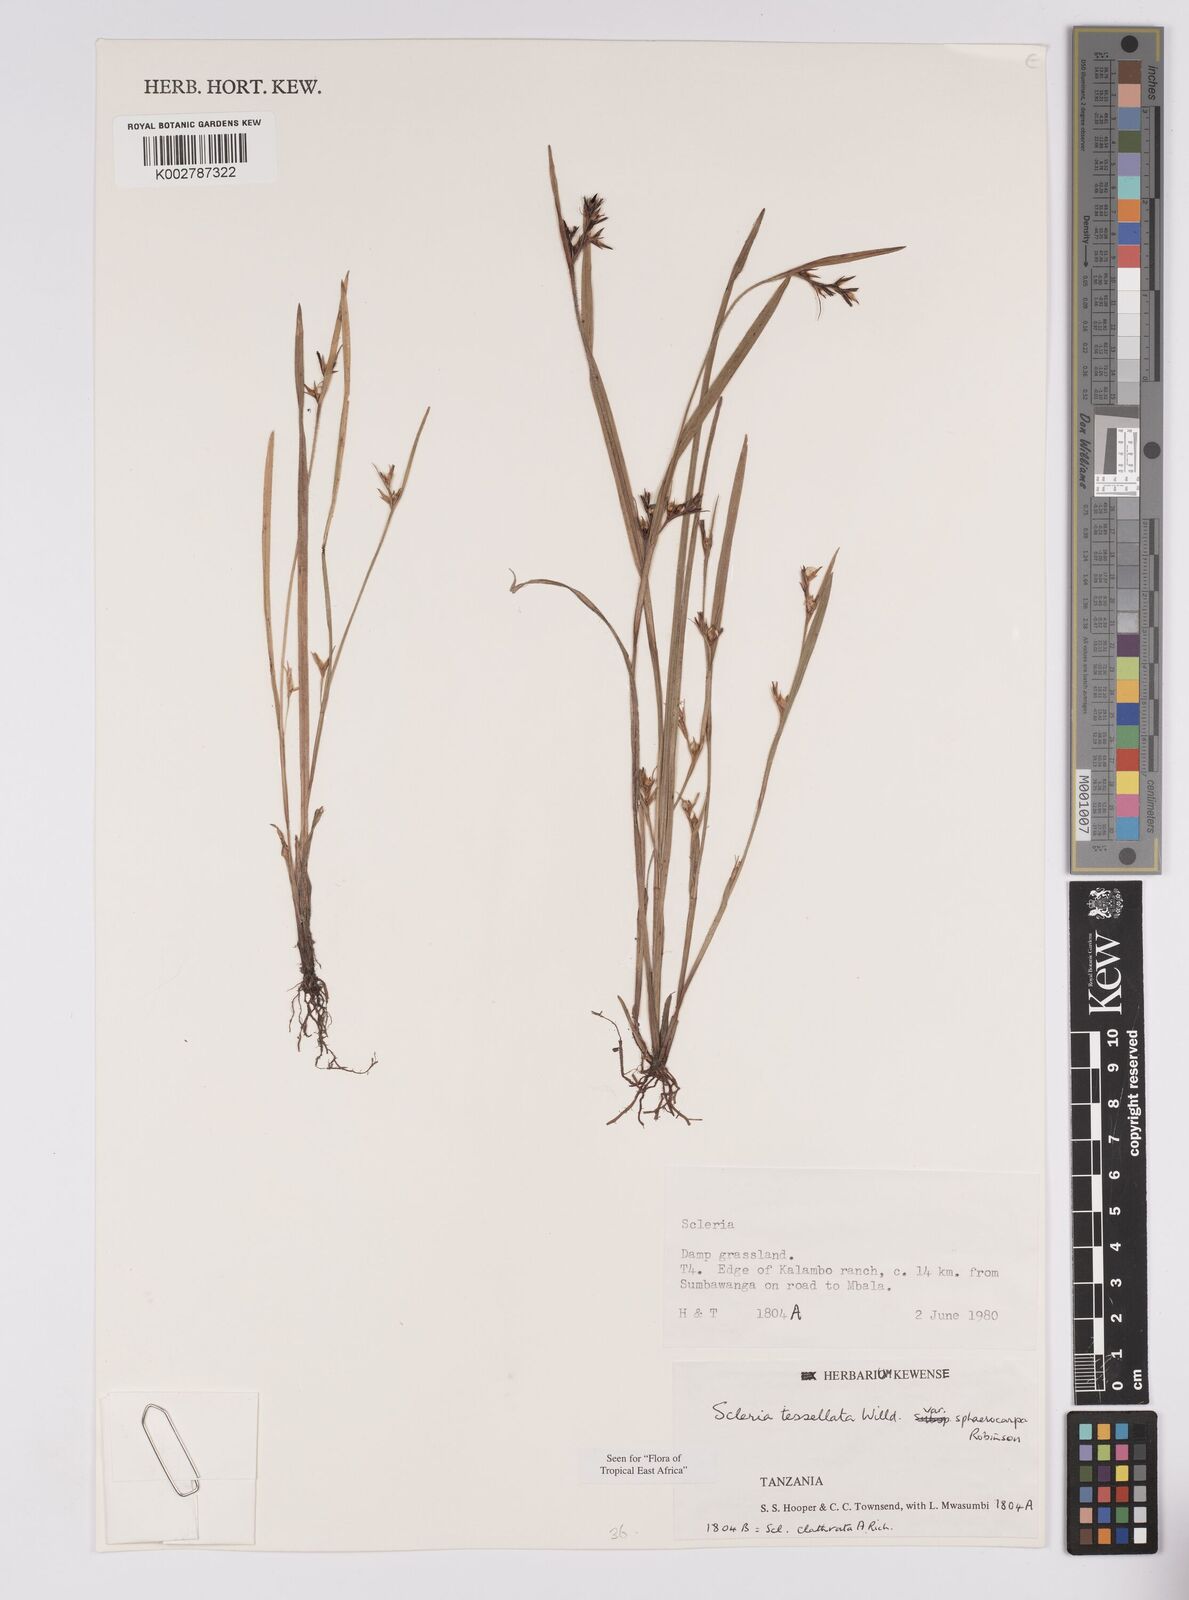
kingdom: Plantae
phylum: Tracheophyta
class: Liliopsida
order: Poales
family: Cyperaceae
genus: Scleria
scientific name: Scleria tessellata
